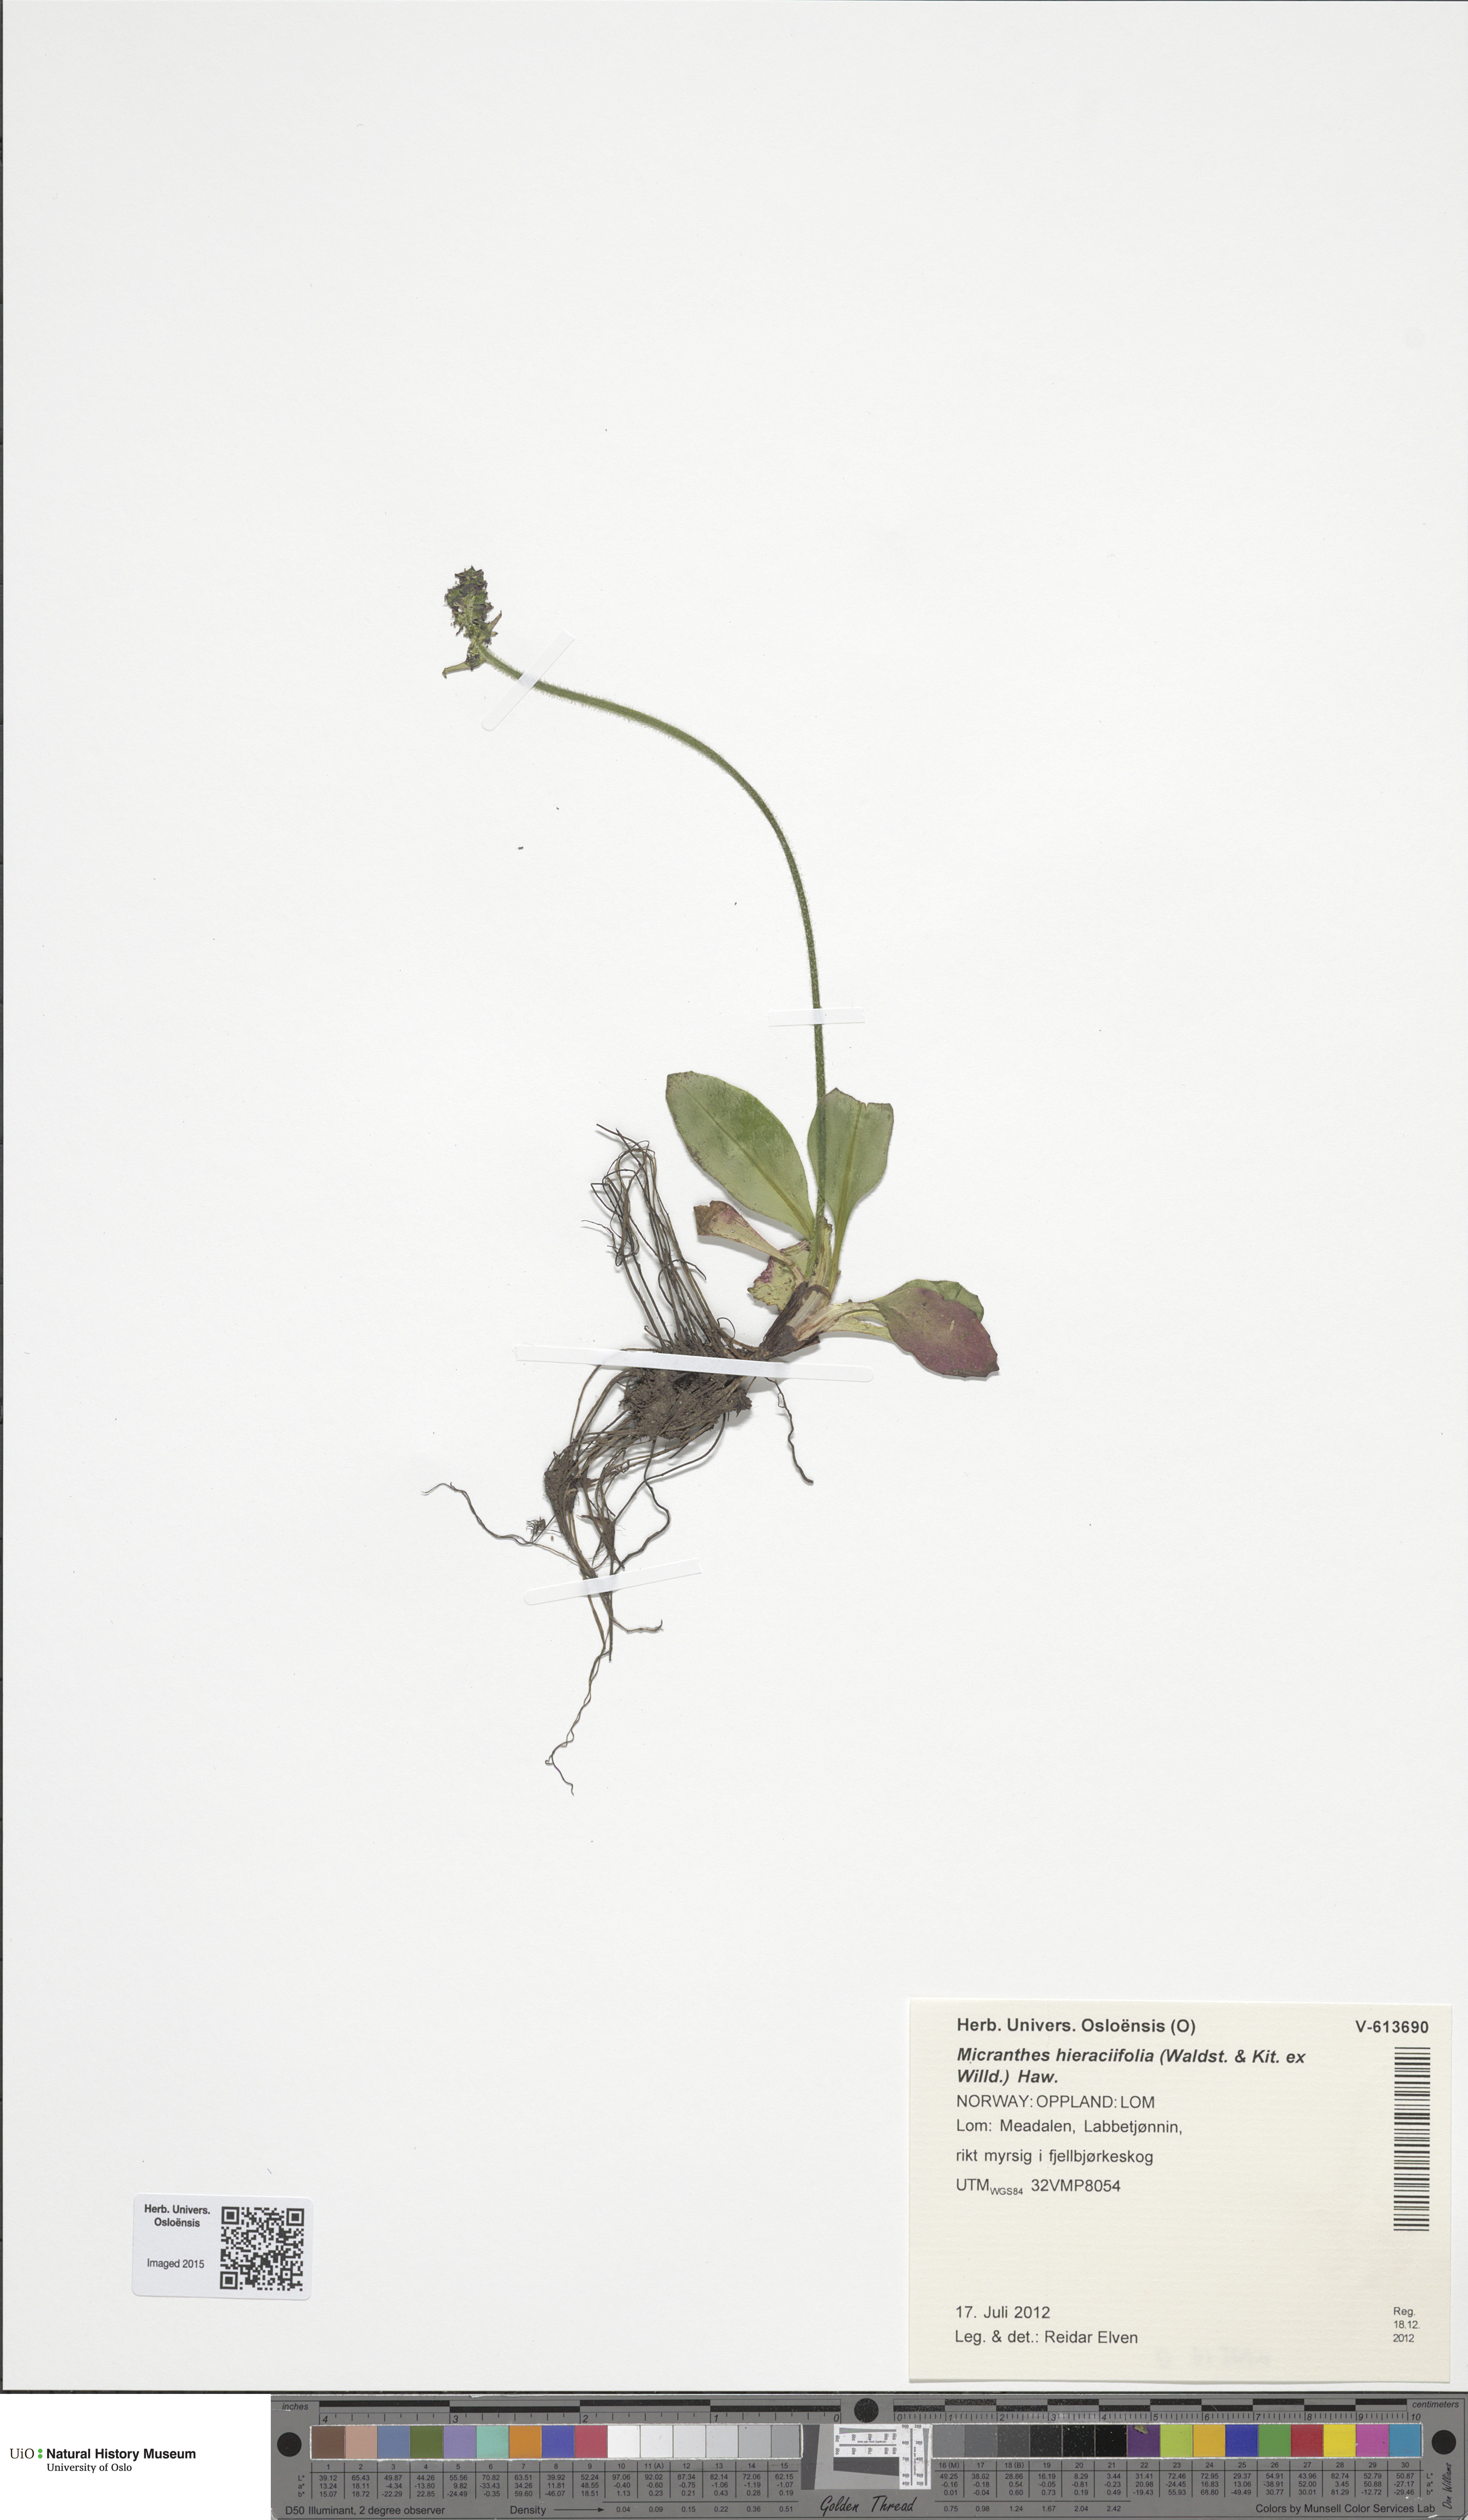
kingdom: Plantae
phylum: Tracheophyta
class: Magnoliopsida
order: Saxifragales
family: Saxifragaceae
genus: Micranthes
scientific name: Micranthes hieraciifolia
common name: Hawkweed-leaved saxifrage
